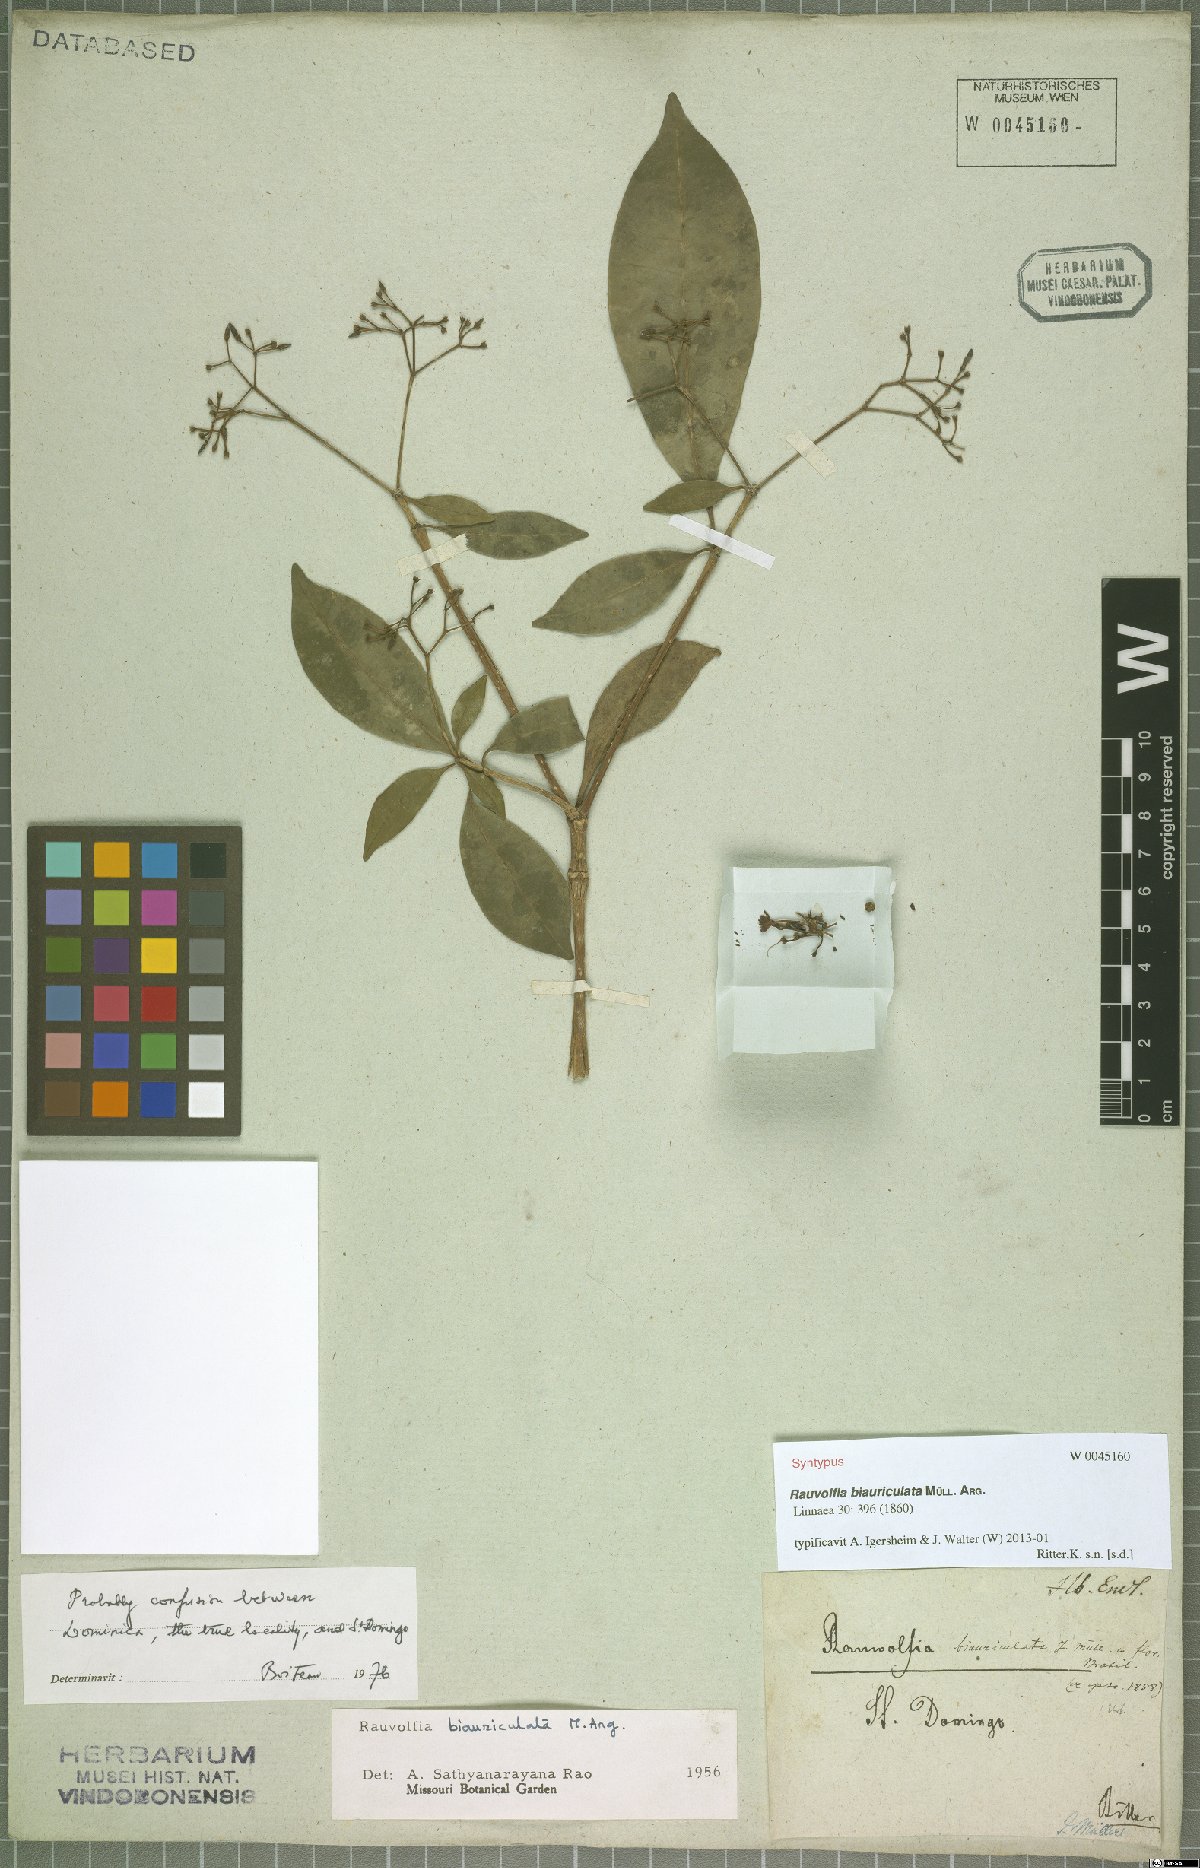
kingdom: Plantae
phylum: Tracheophyta
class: Magnoliopsida
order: Gentianales
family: Apocynaceae
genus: Rauvolfia
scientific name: Rauvolfia biauriculata
